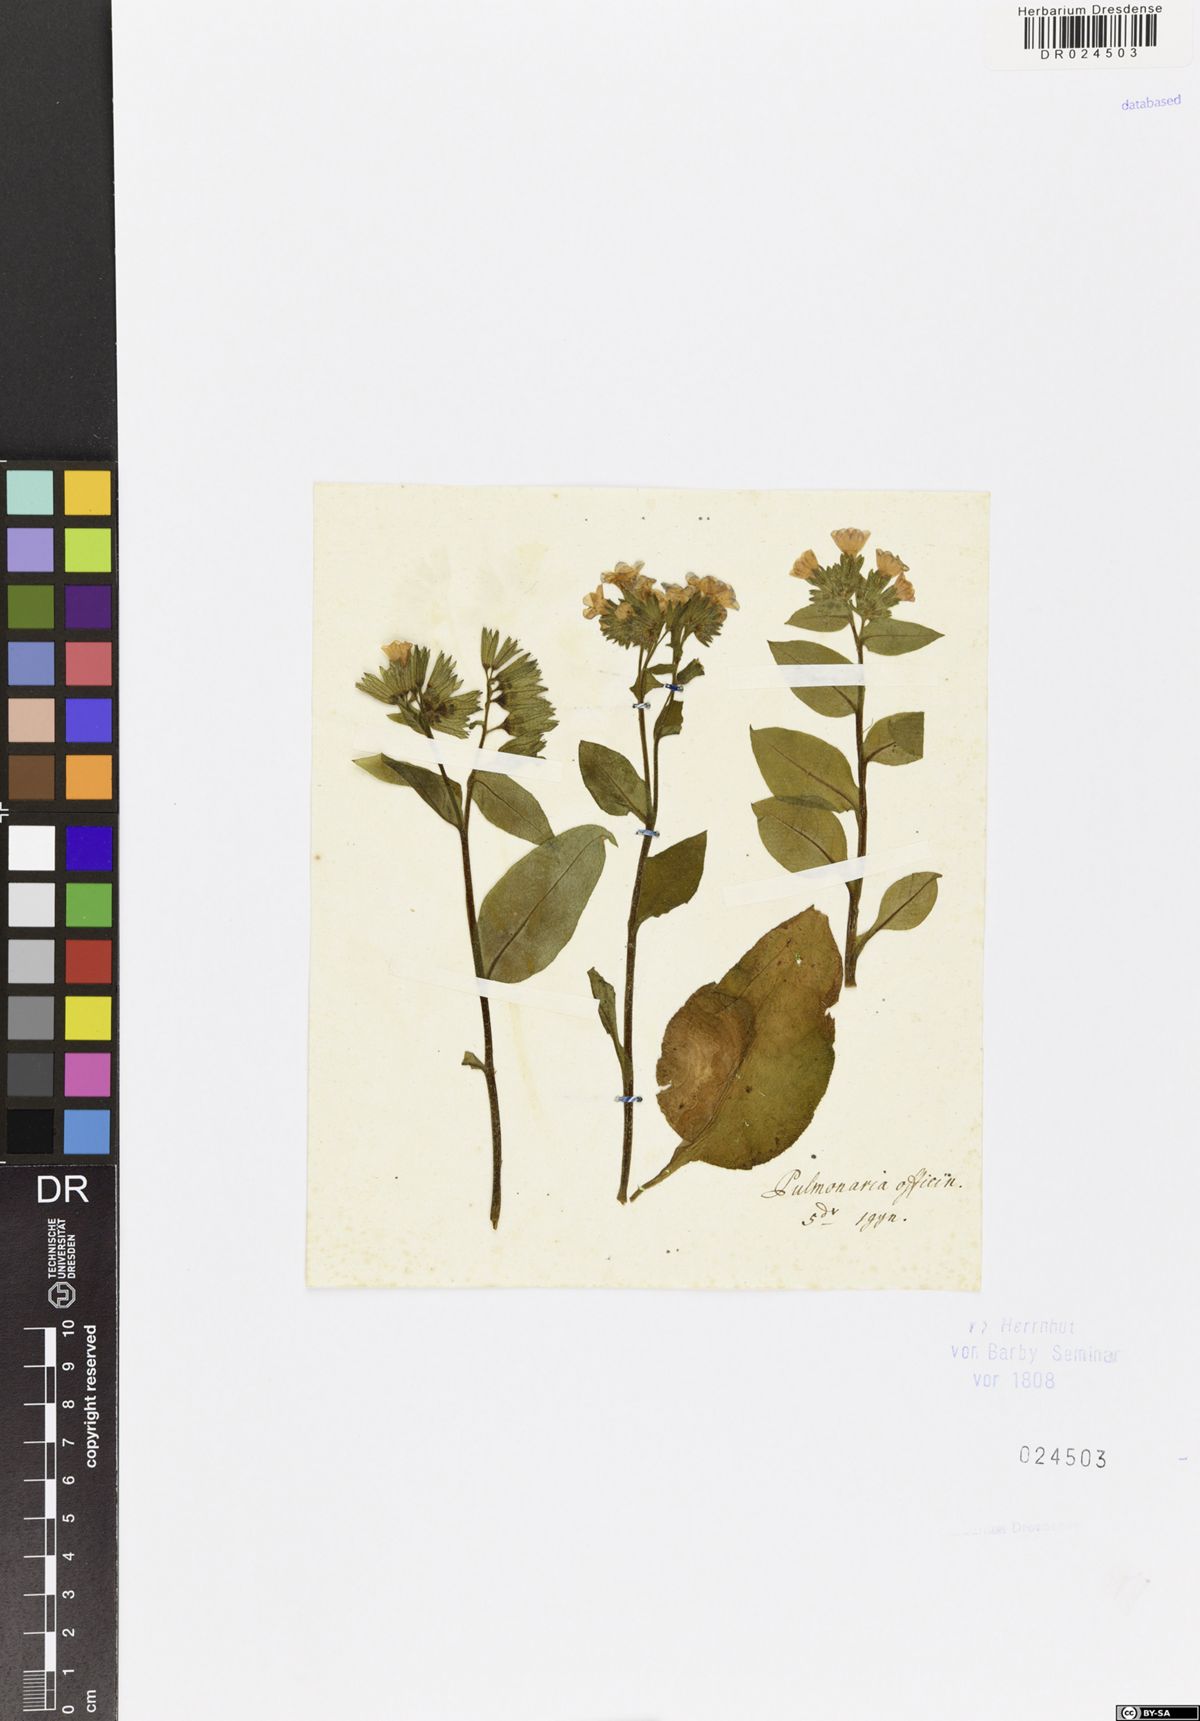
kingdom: Plantae
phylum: Tracheophyta
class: Magnoliopsida
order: Boraginales
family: Boraginaceae
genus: Pulmonaria
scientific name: Pulmonaria obscura
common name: Suffolk lungwort
